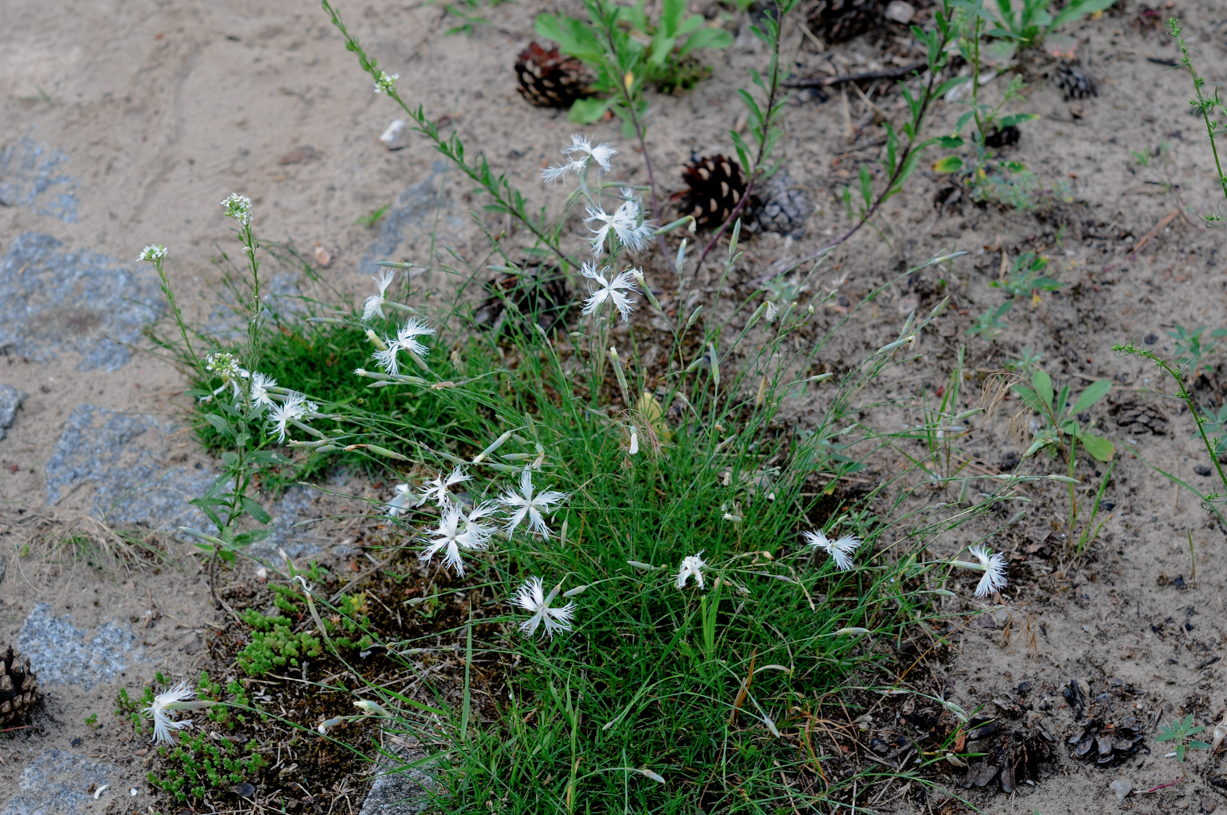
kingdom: Plantae
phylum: Tracheophyta
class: Magnoliopsida
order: Caryophyllales
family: Caryophyllaceae
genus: Dianthus
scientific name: Dianthus arenarius
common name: Stone pink
